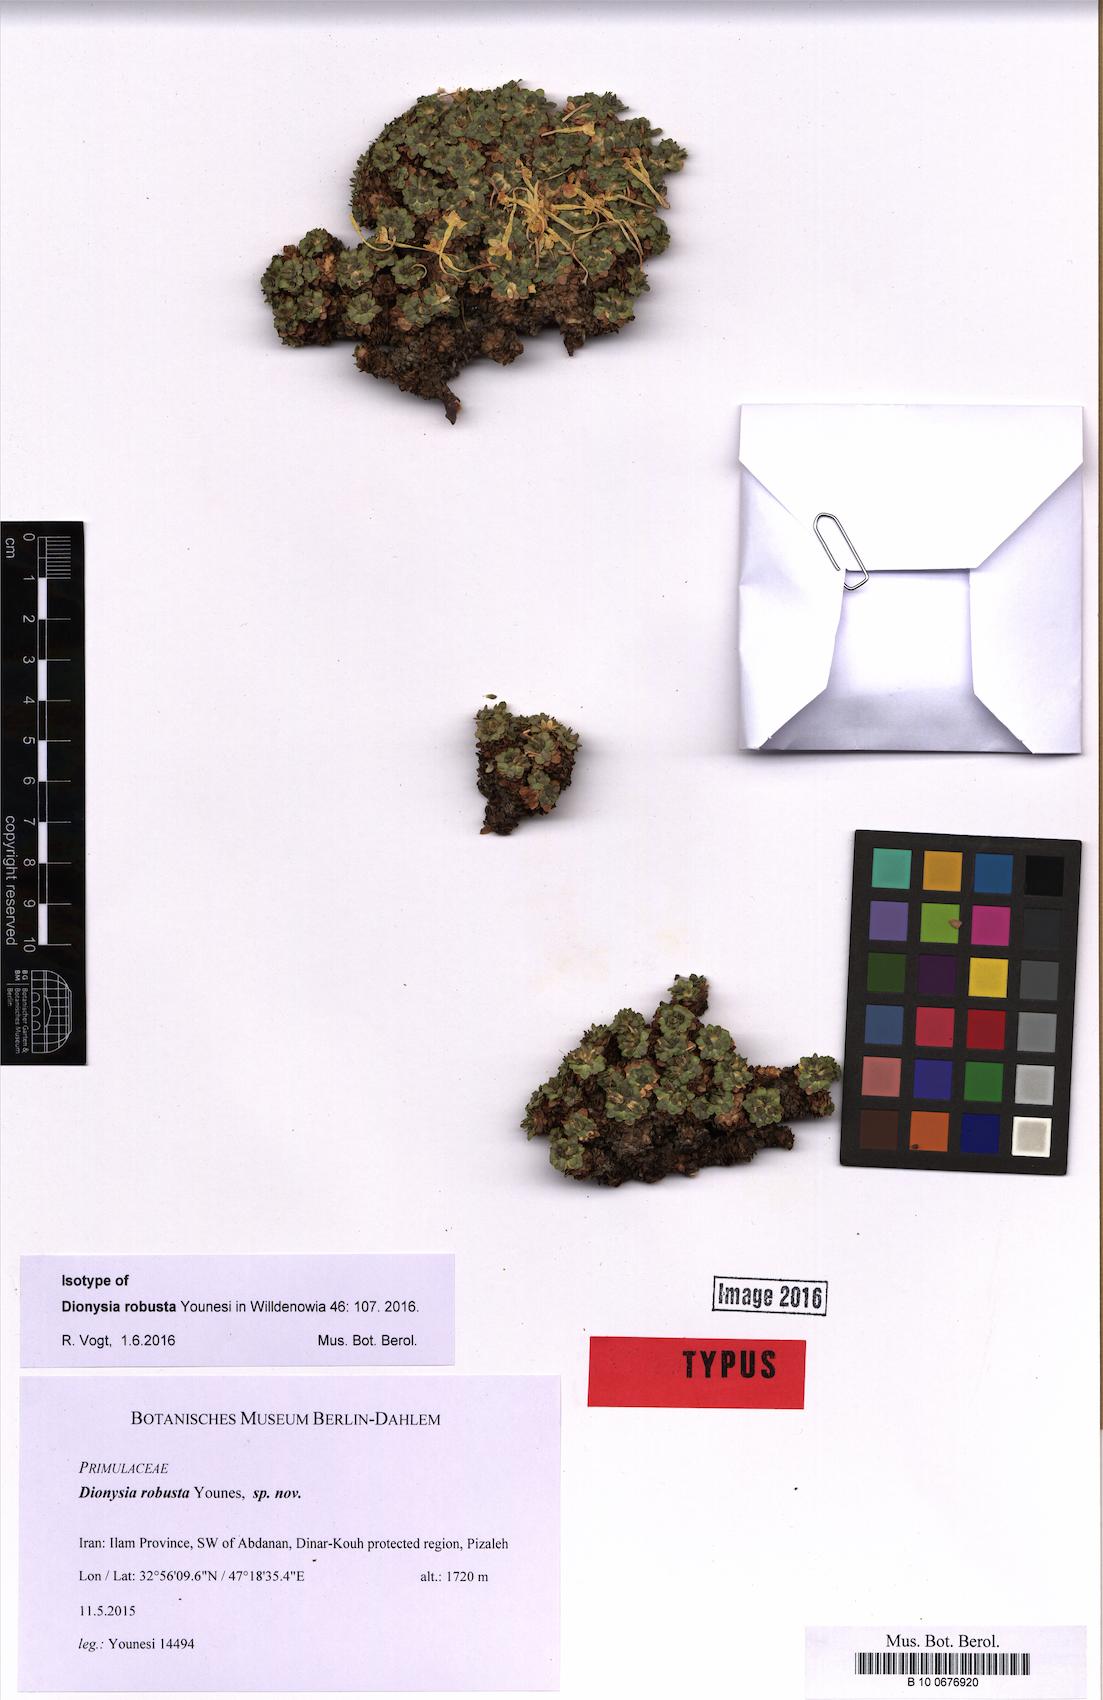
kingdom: Plantae
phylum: Tracheophyta
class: Magnoliopsida
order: Ericales
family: Primulaceae
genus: Dionysia
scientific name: Dionysia robusta
